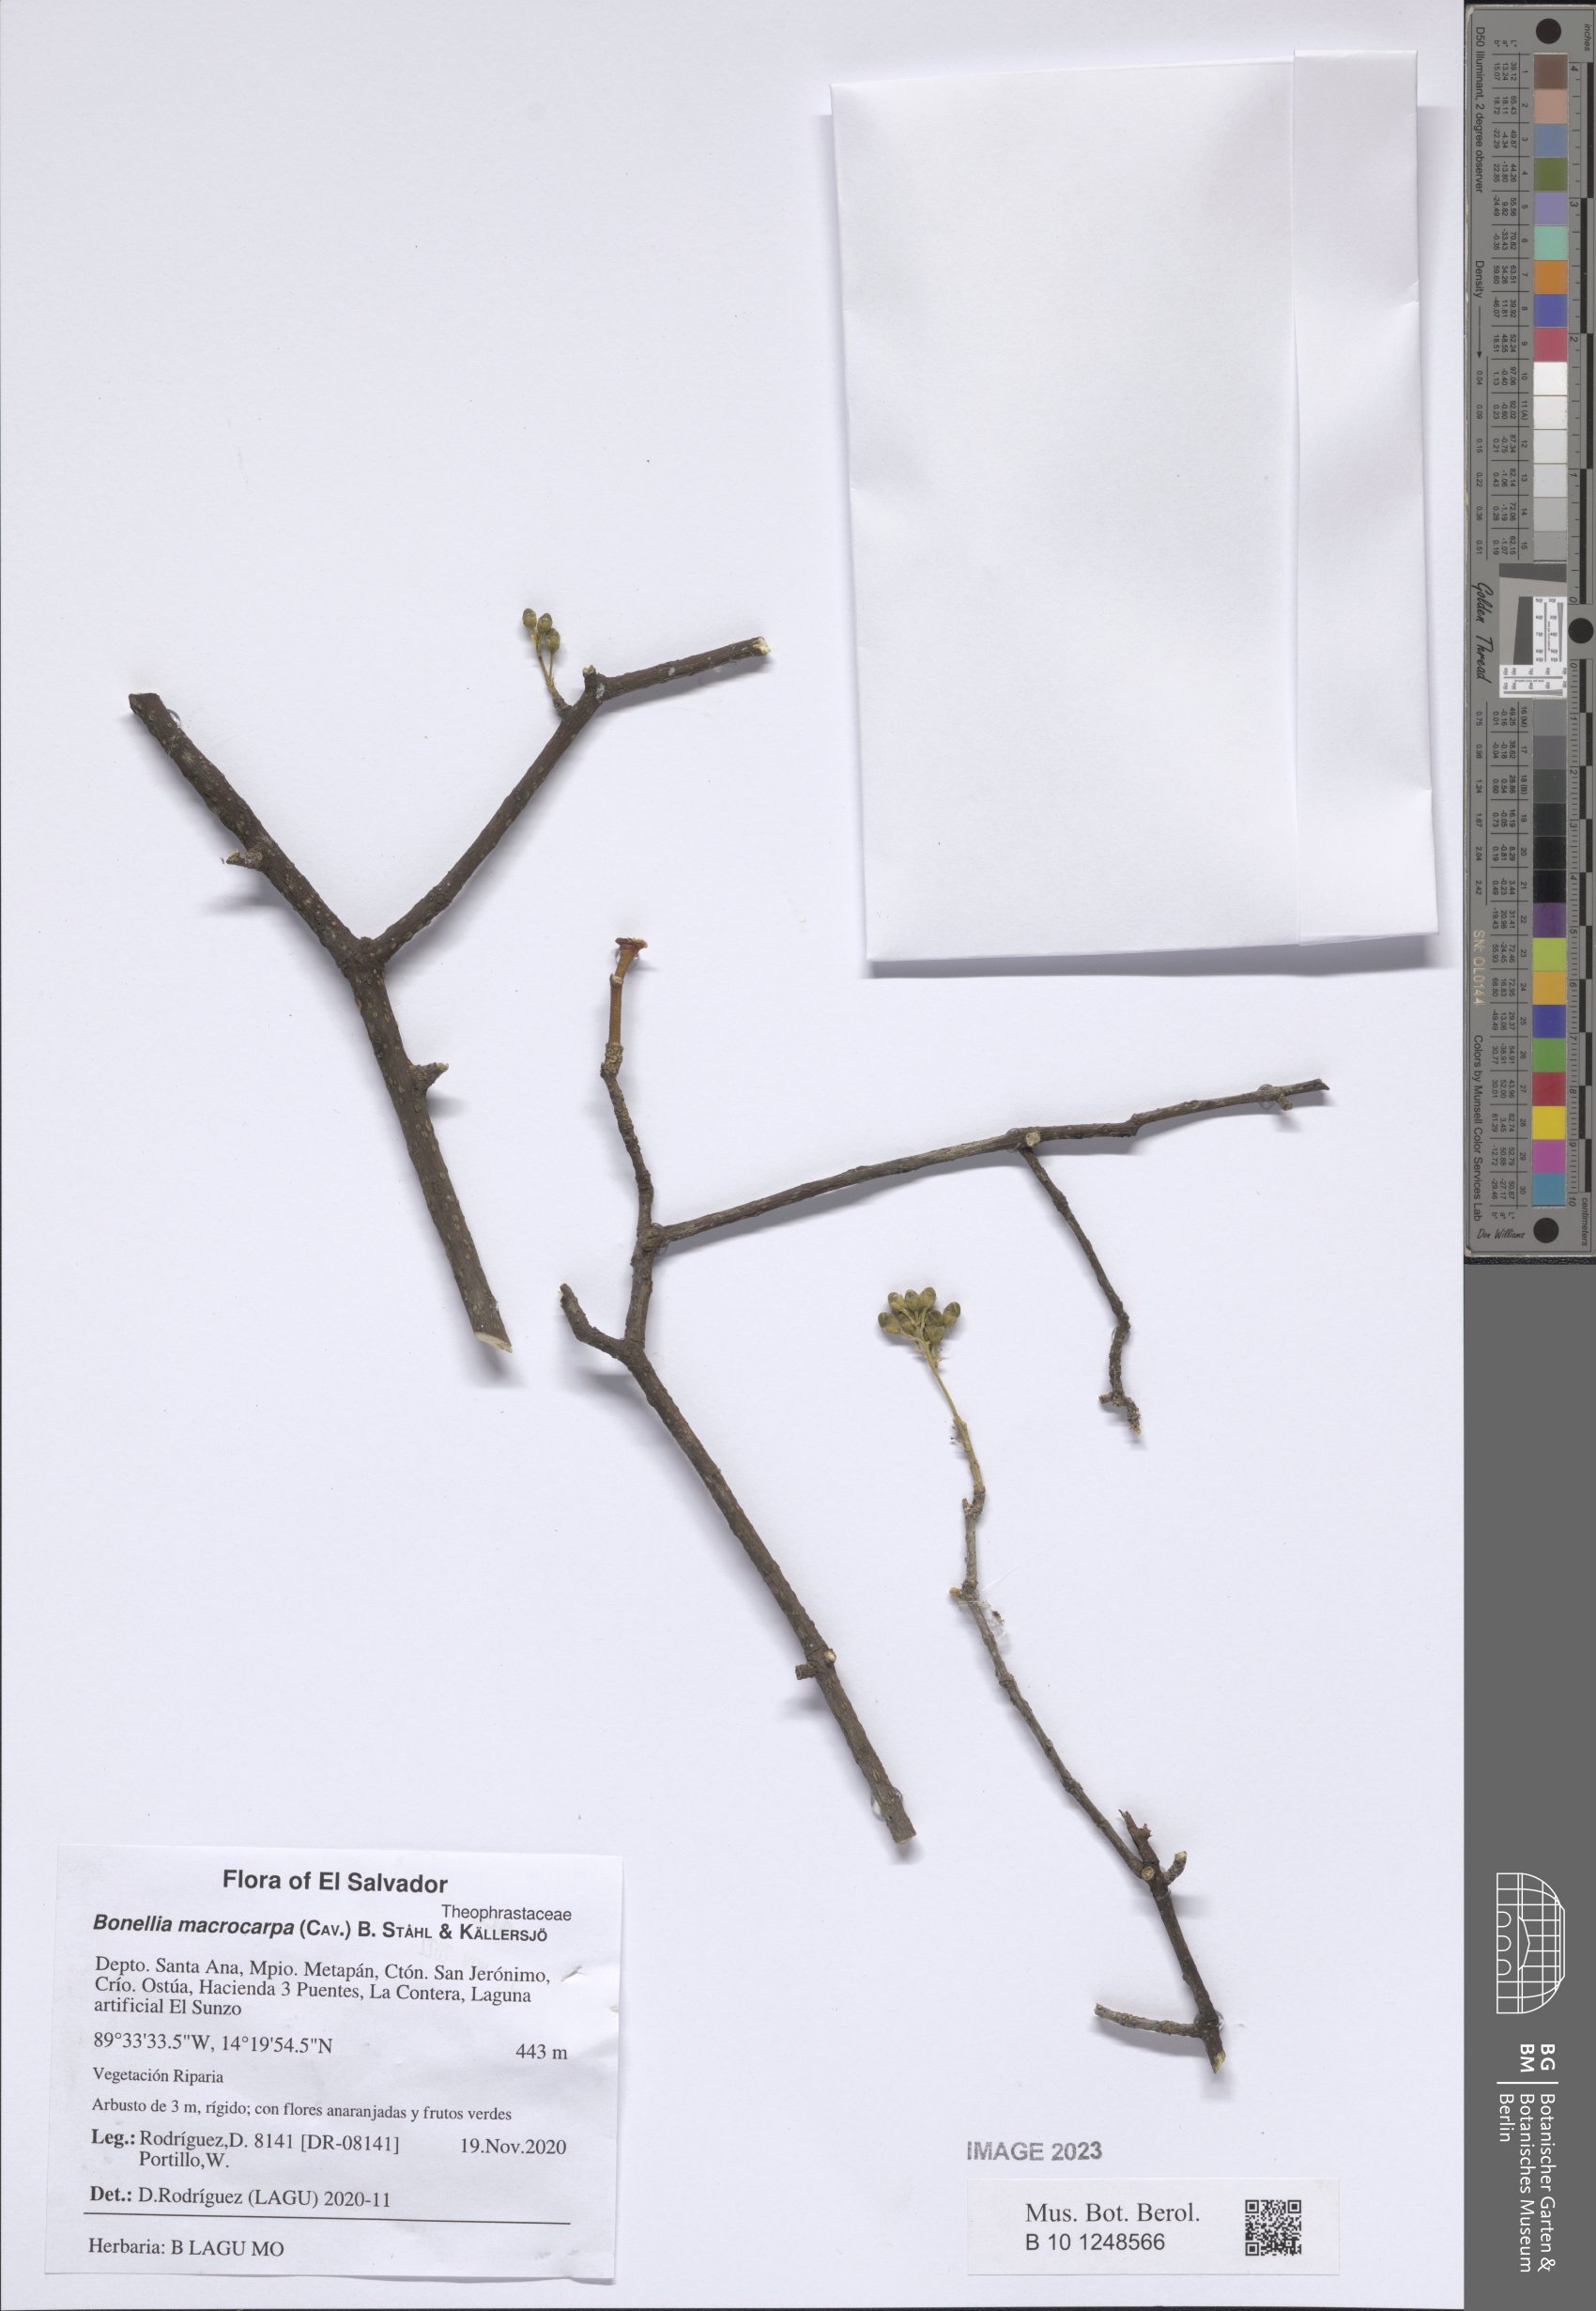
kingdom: Plantae
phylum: Tracheophyta
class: Magnoliopsida
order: Ericales
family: Primulaceae
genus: Bonellia
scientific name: Bonellia macrocarpa
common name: Primrose
